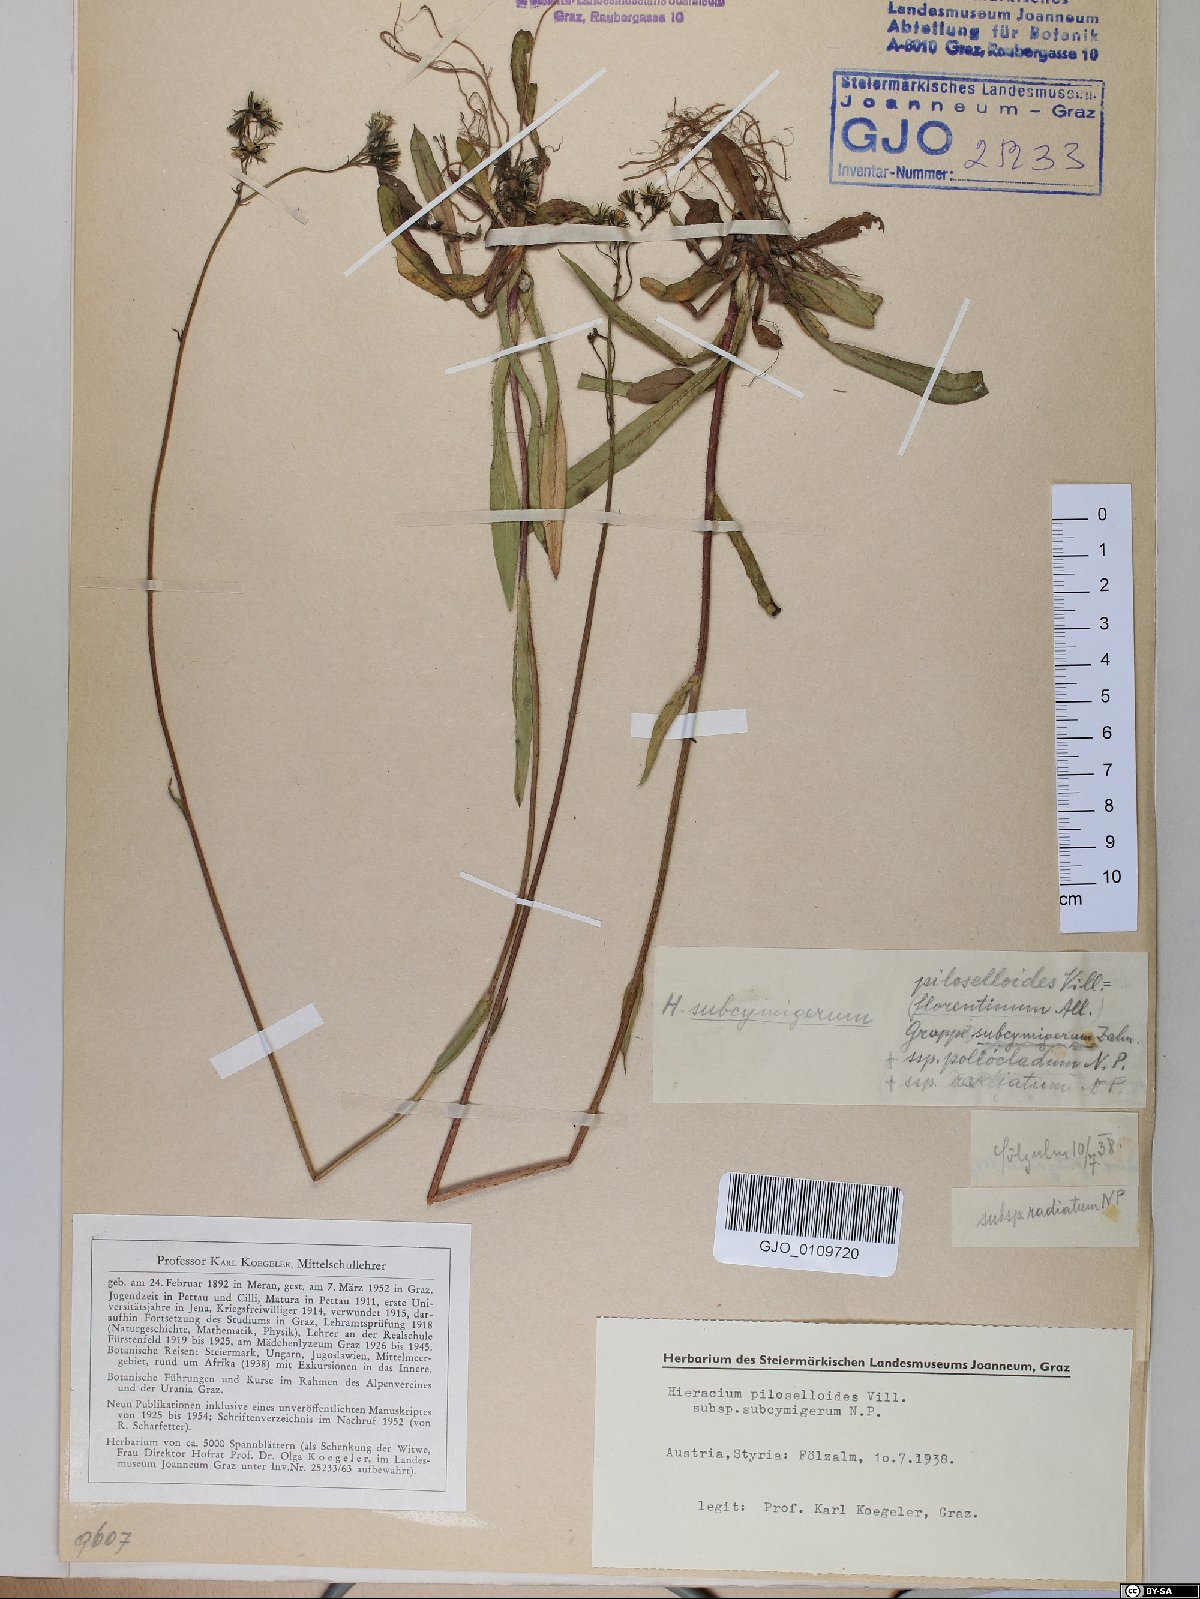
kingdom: Plantae
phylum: Tracheophyta
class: Magnoliopsida
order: Asterales
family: Asteraceae
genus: Pilosella
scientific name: Pilosella piloselloides
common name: Glaucous king-devil
